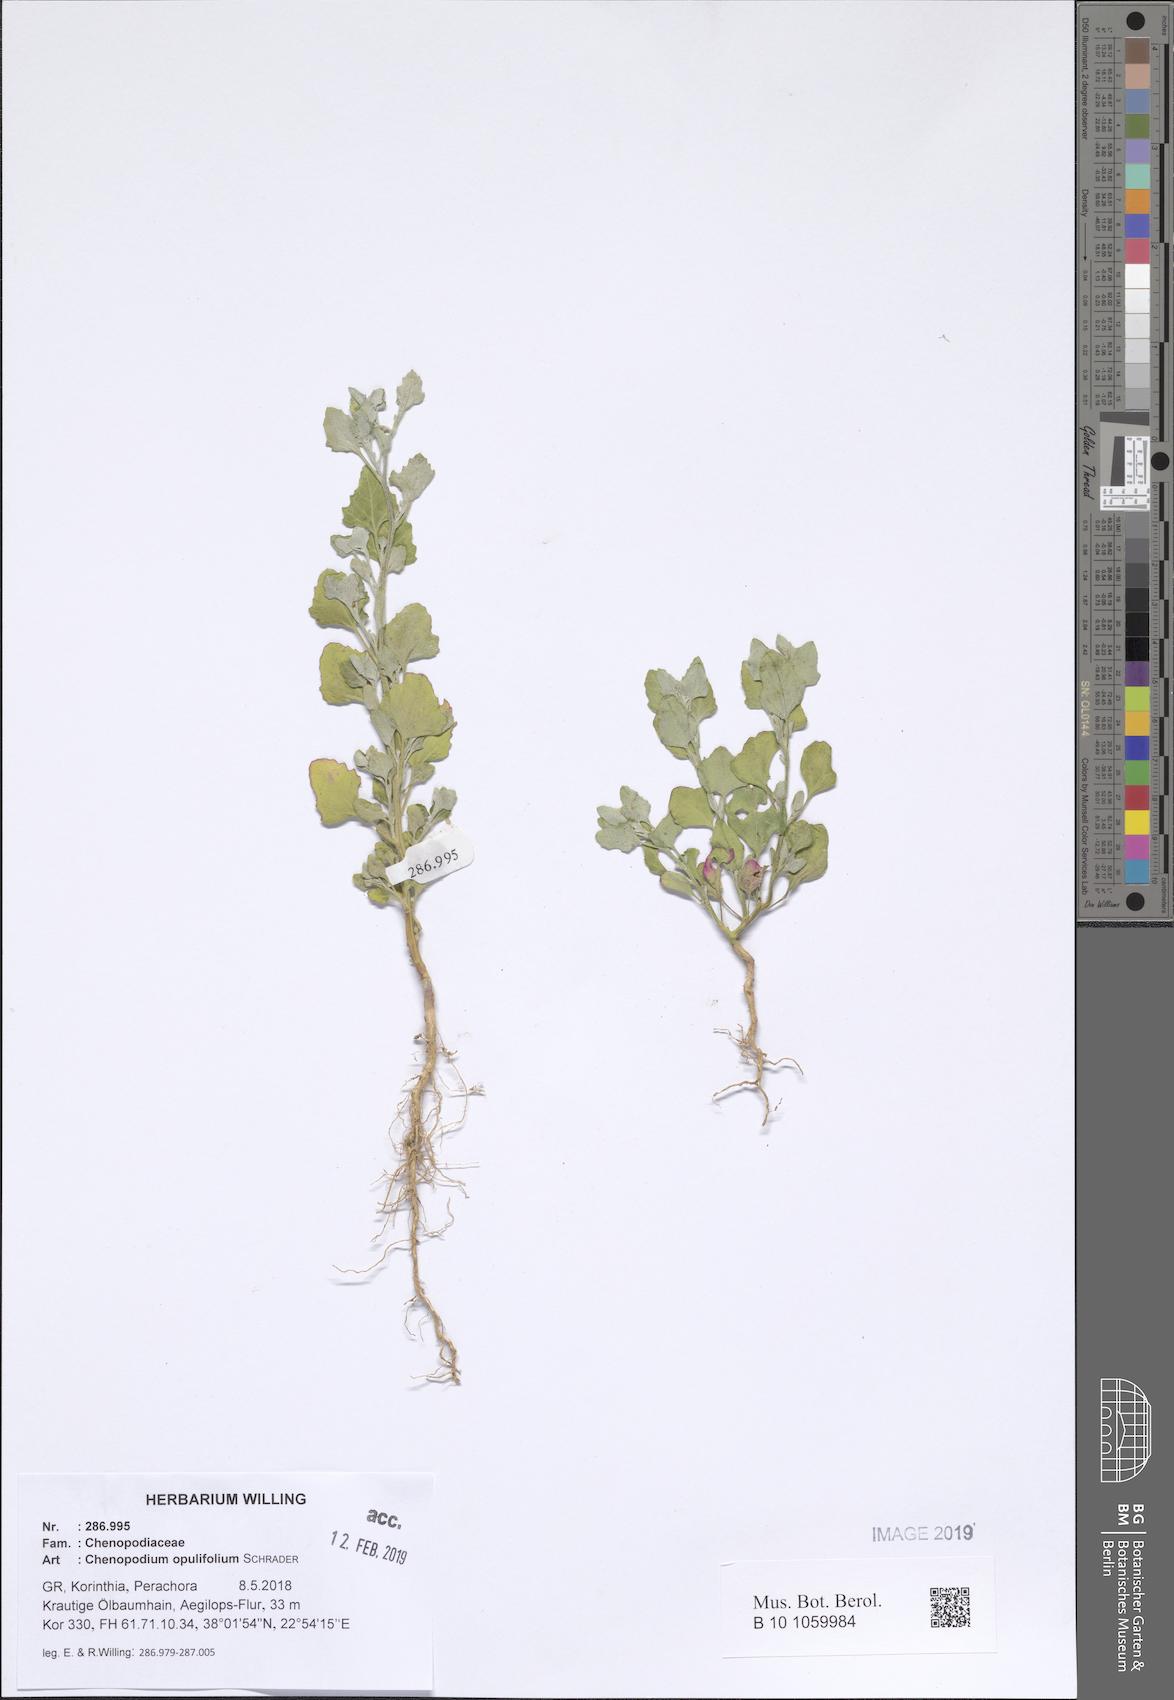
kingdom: Plantae
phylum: Tracheophyta
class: Magnoliopsida
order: Caryophyllales
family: Amaranthaceae
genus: Chenopodium
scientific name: Chenopodium opulifolium
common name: Grey goosefoot
